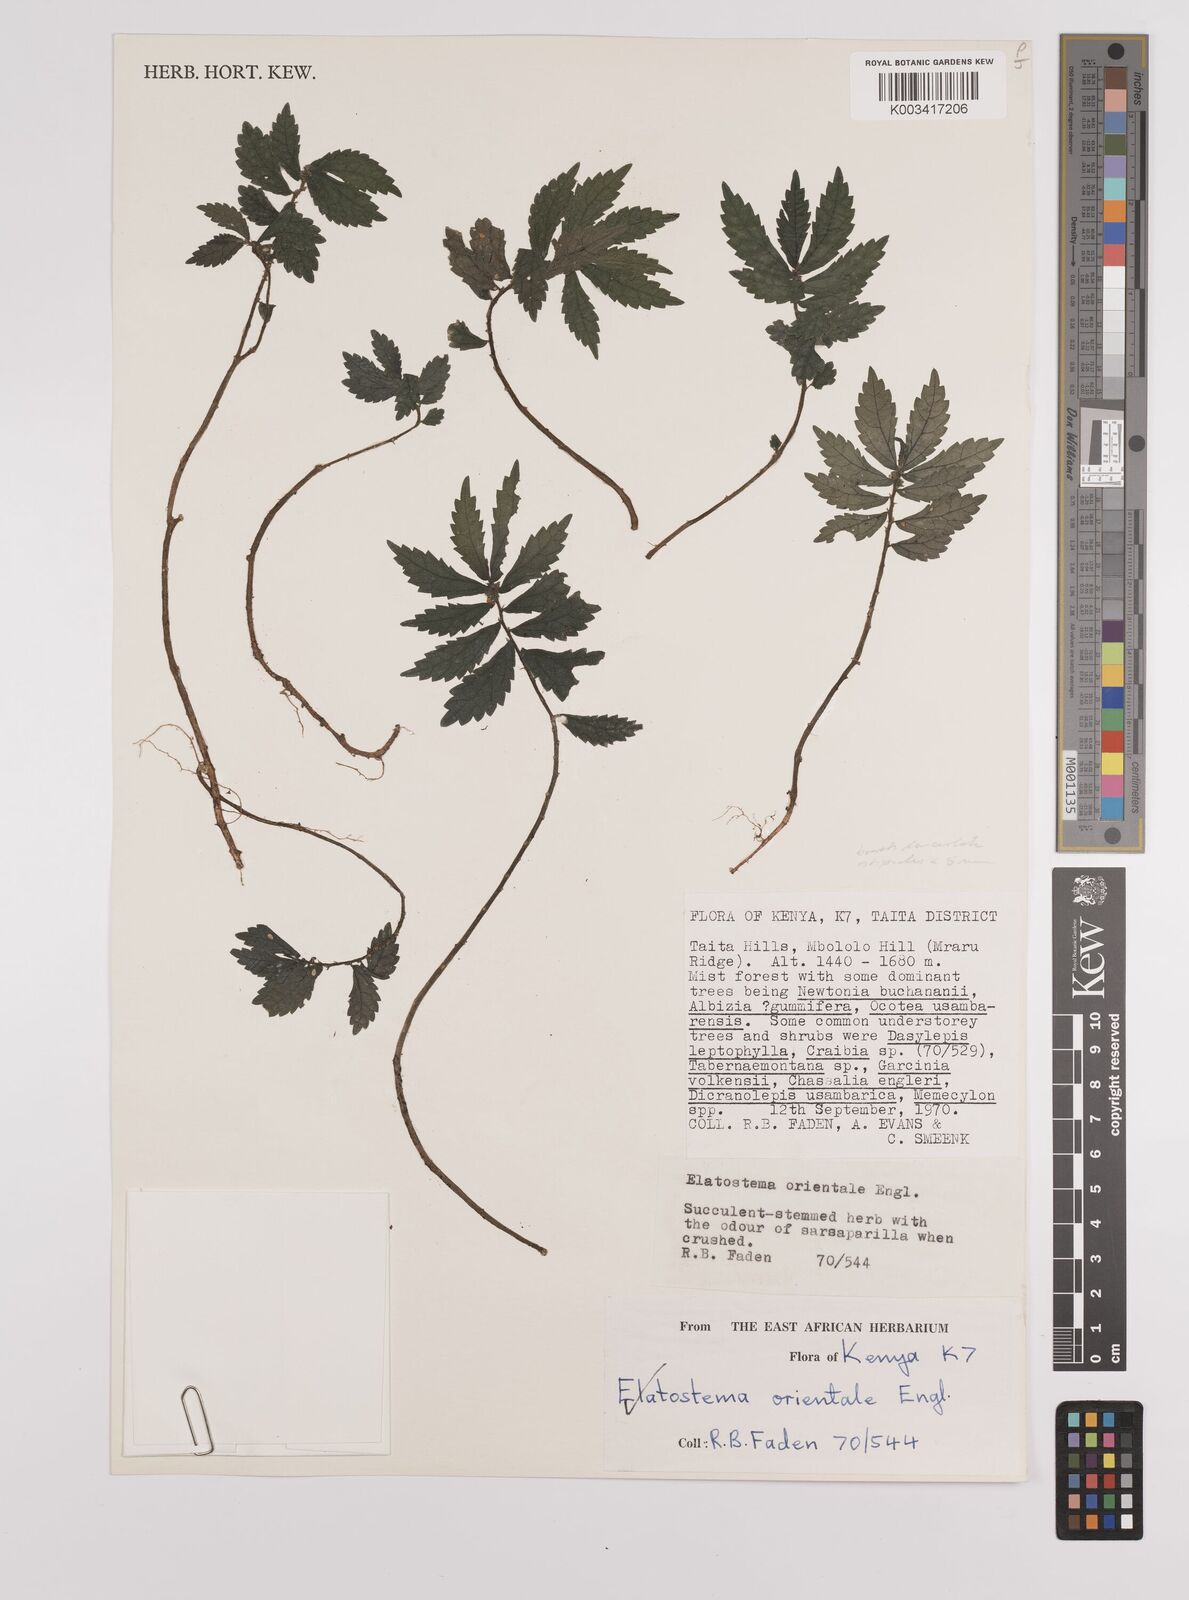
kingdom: Plantae
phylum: Tracheophyta
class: Magnoliopsida
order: Rosales
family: Urticaceae
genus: Elatostema
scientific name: Elatostema monticola
